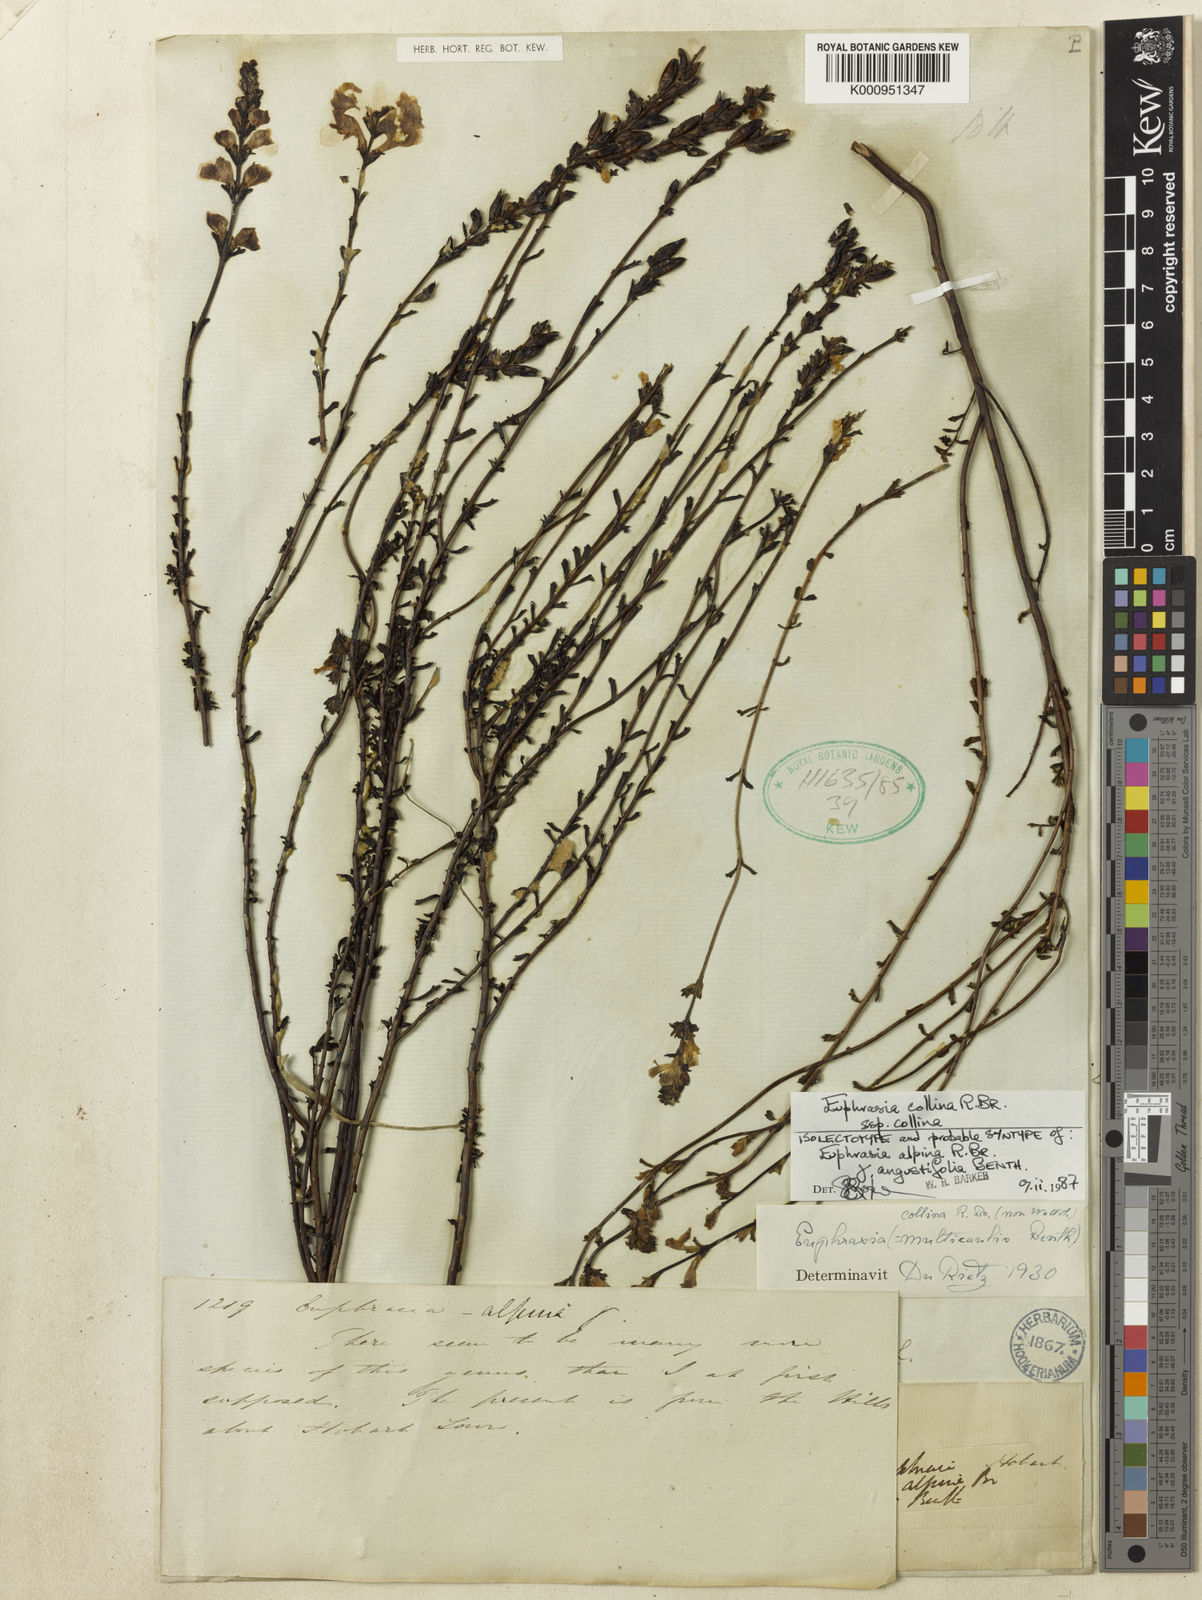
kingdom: Plantae
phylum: Tracheophyta
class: Magnoliopsida
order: Lamiales
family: Orobanchaceae
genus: Euphrasia
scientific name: Euphrasia collina
